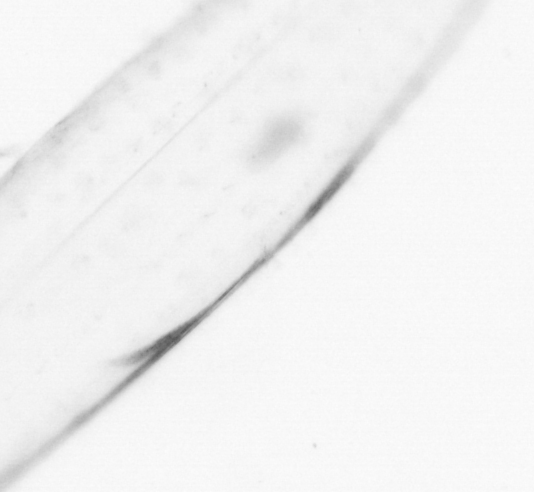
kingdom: Animalia
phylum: Chaetognatha
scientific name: Chaetognatha
